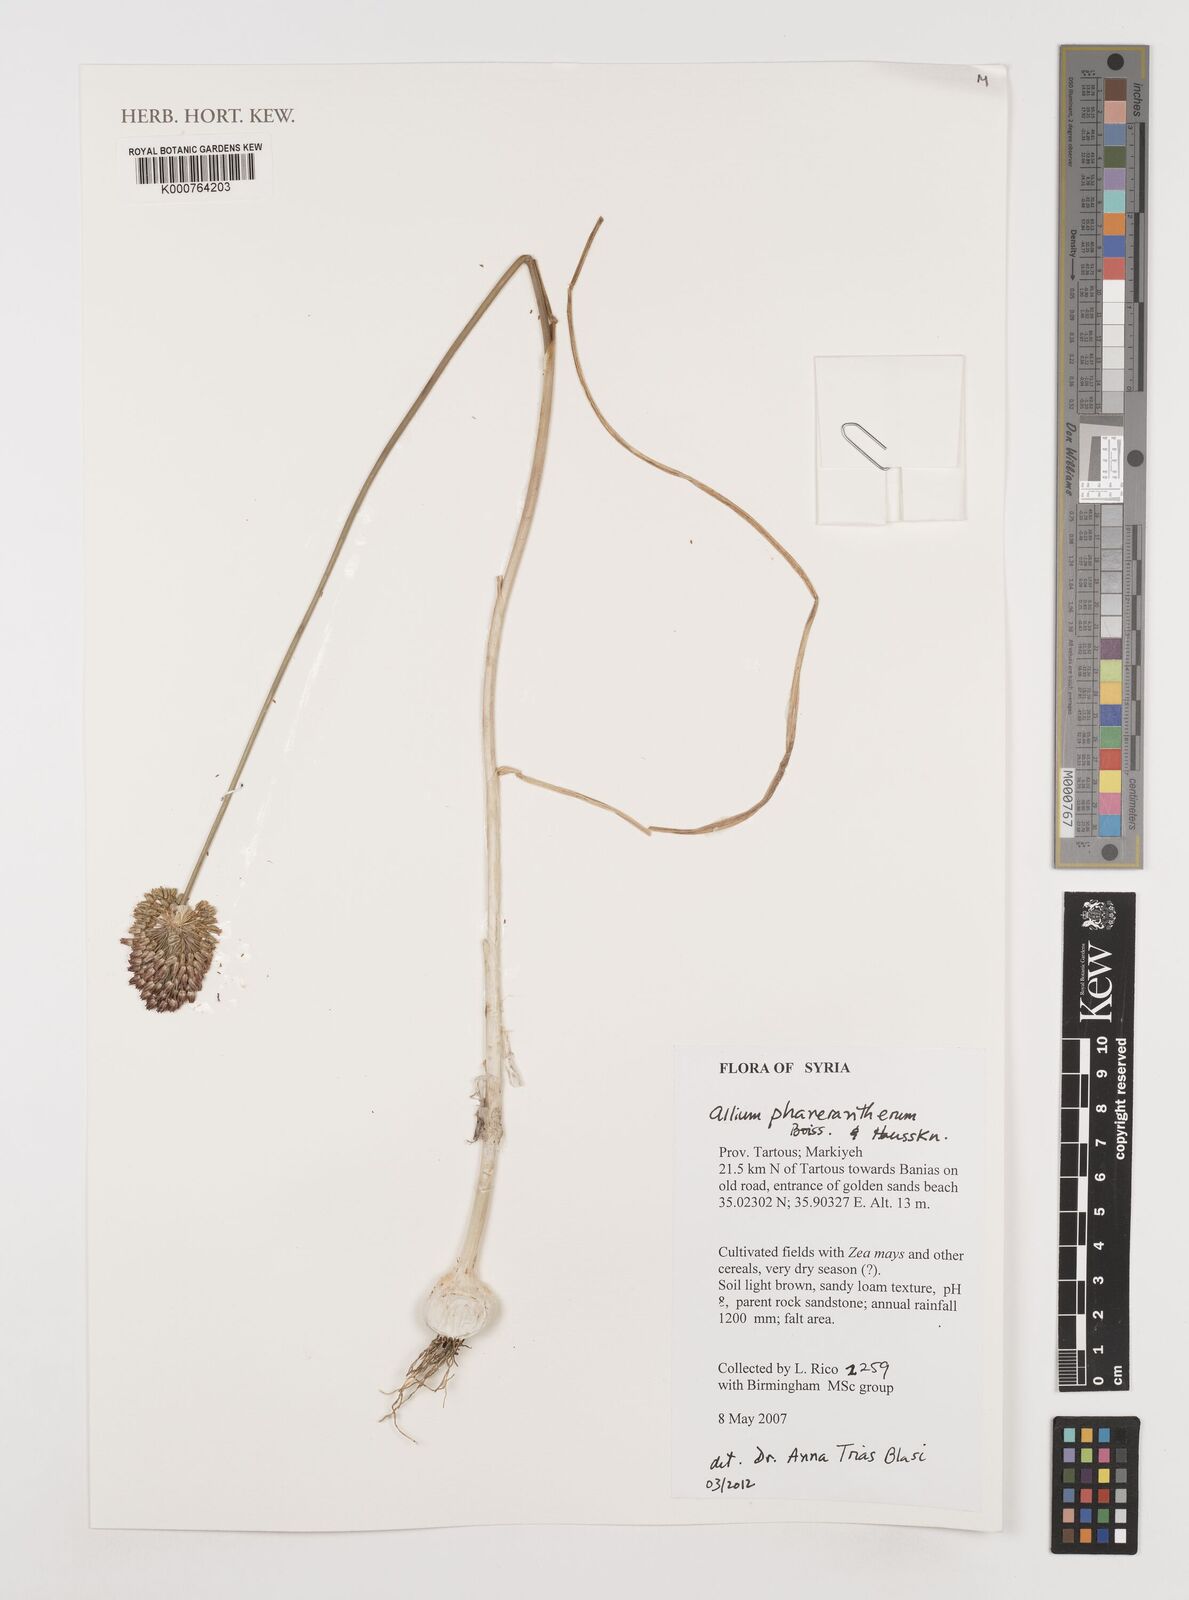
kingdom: Plantae
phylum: Tracheophyta
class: Liliopsida
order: Asparagales
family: Amaryllidaceae
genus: Allium
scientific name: Allium phanerantherum
